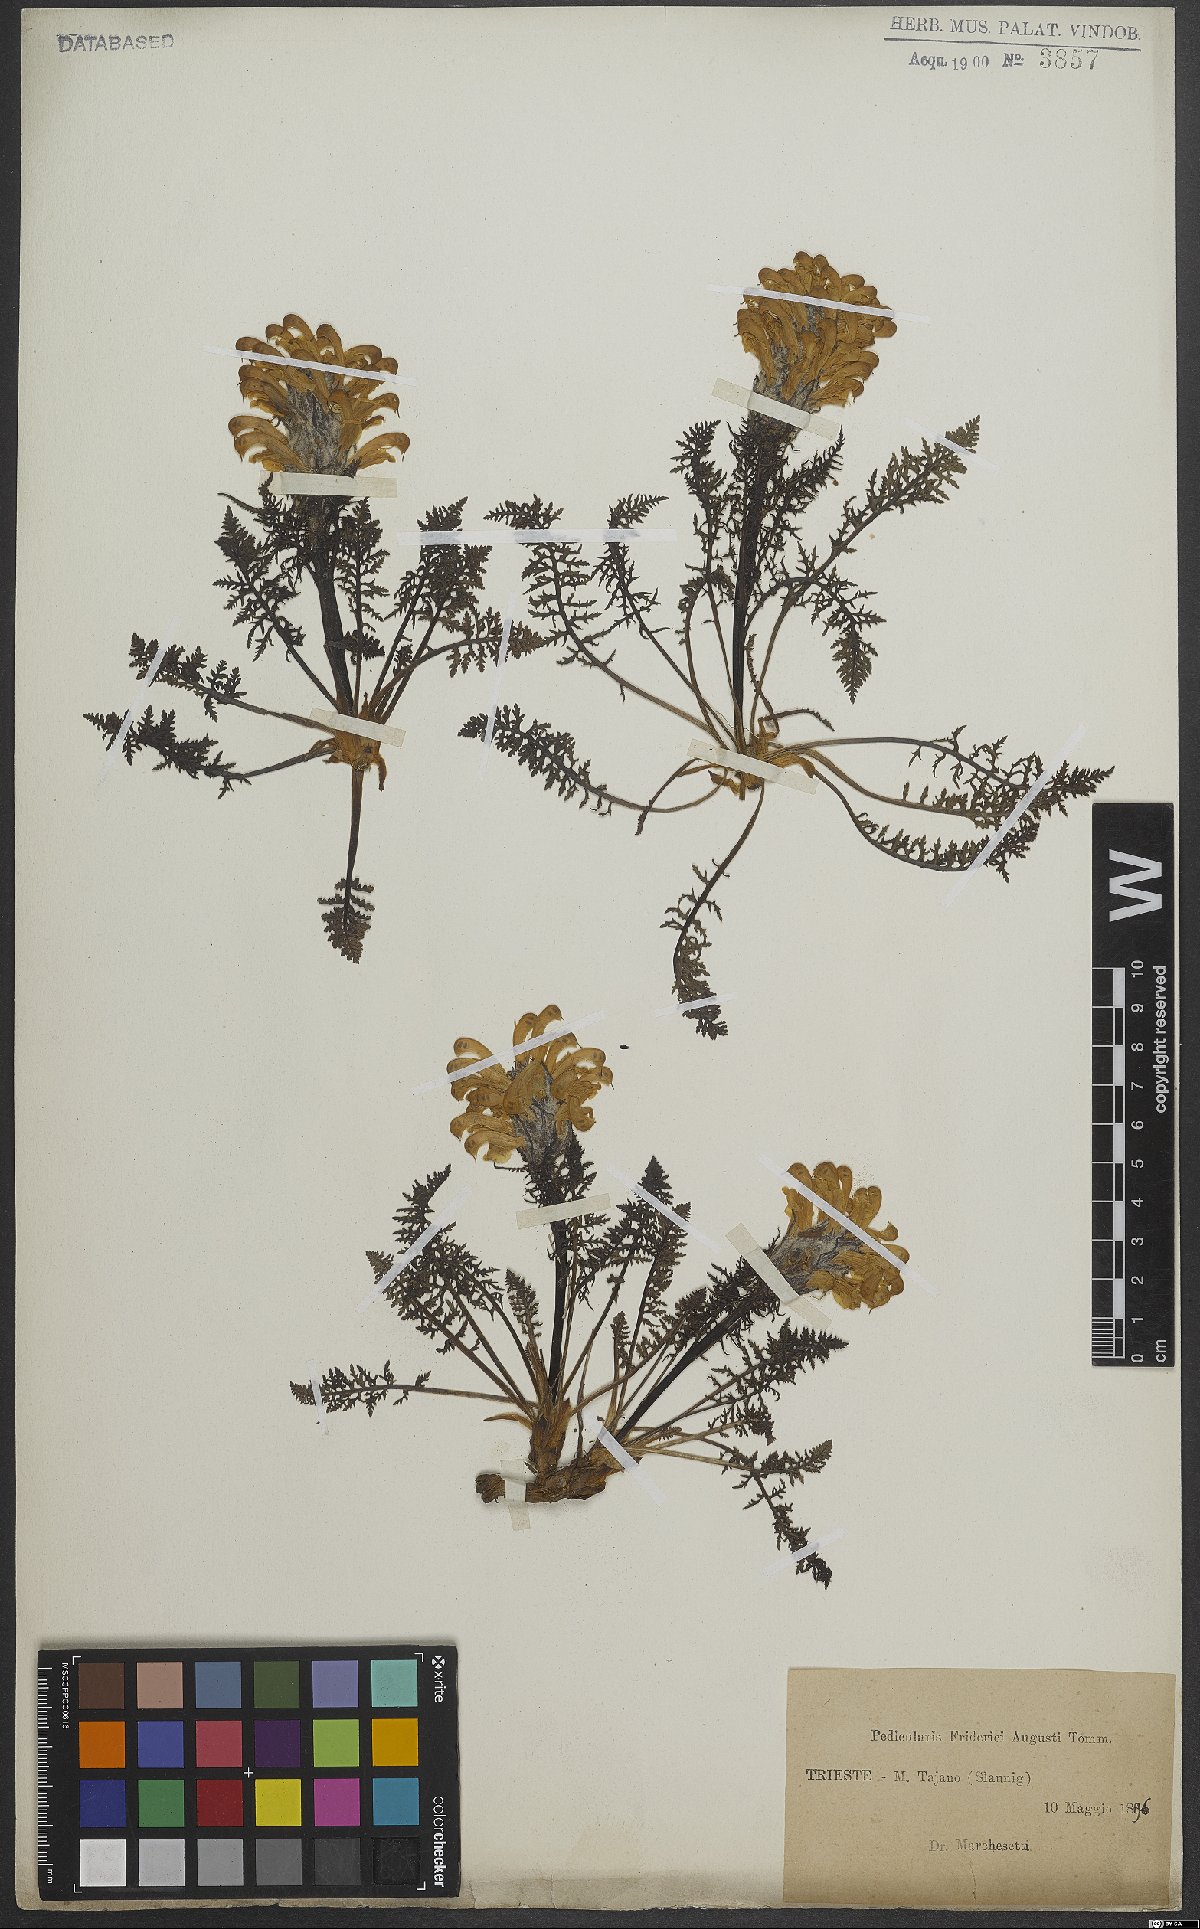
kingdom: Plantae
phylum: Tracheophyta
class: Magnoliopsida
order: Lamiales
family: Orobanchaceae
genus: Pedicularis
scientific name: Pedicularis friderici-augusti
